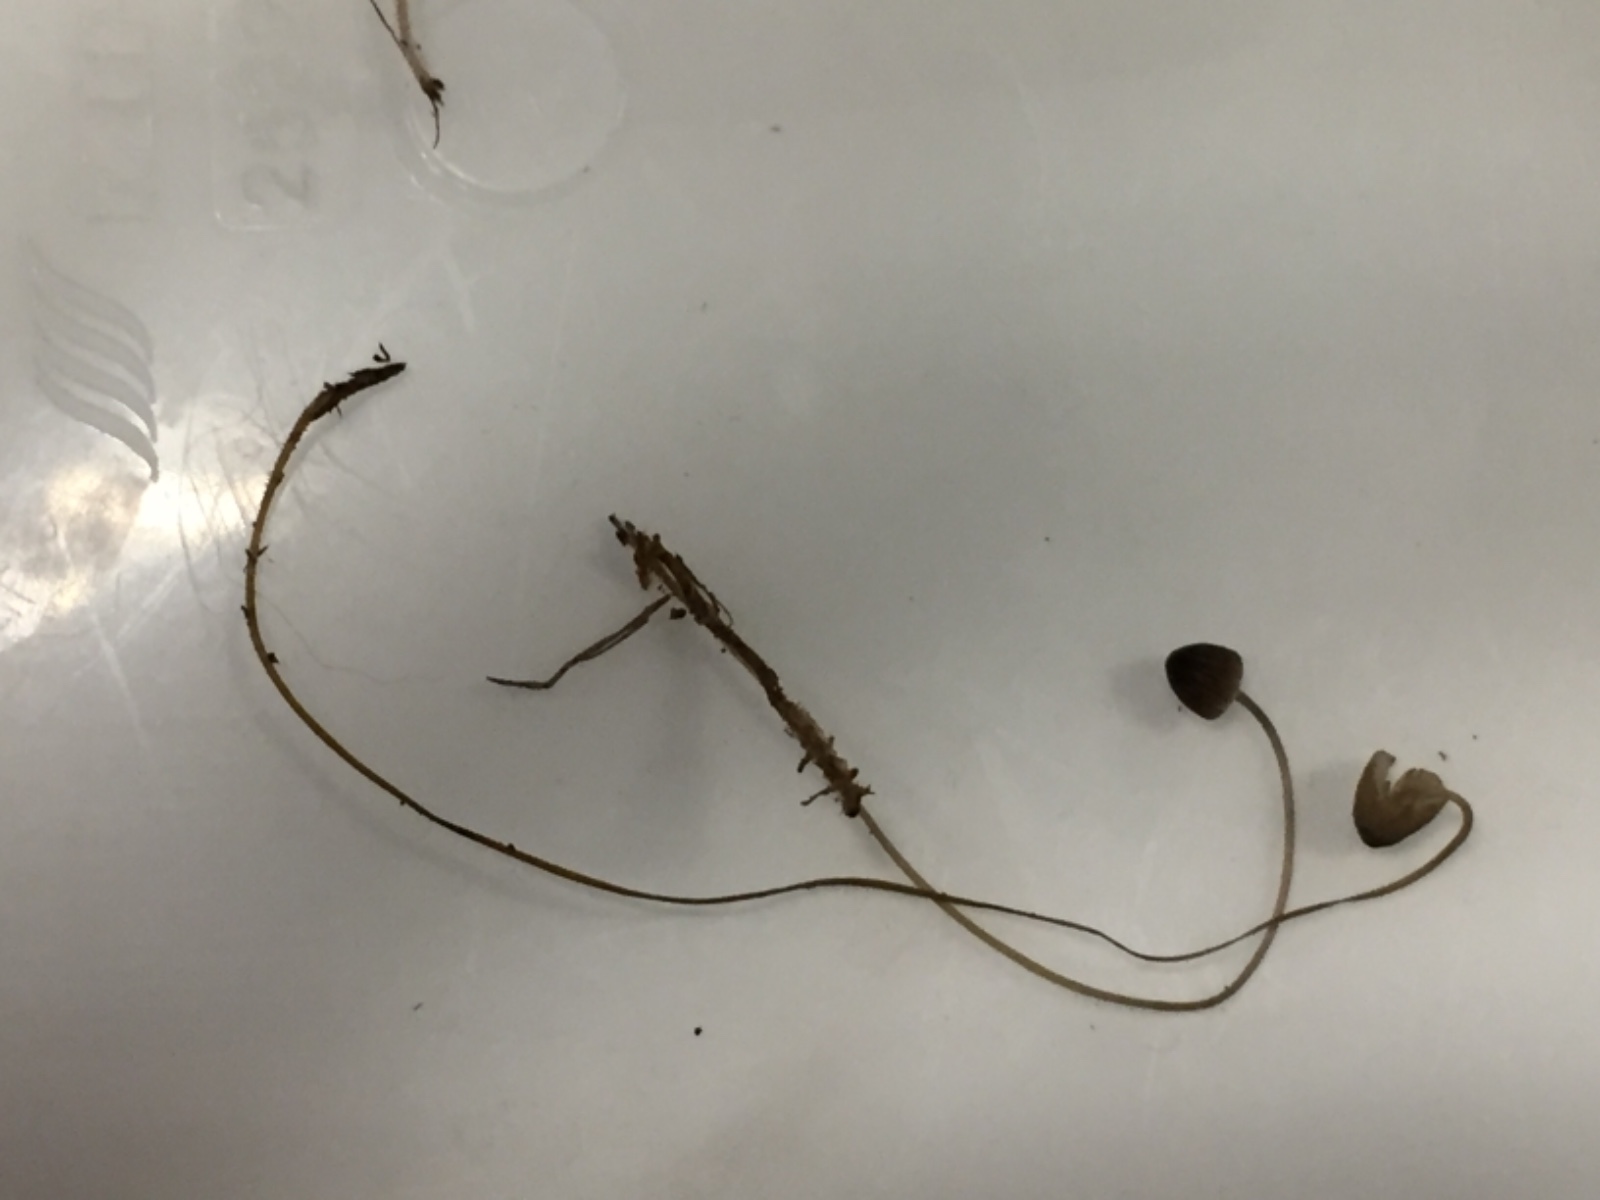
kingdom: Fungi
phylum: Basidiomycota
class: Agaricomycetes
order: Agaricales
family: Tricholomataceae
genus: Mycenella
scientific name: Mycenella lasiosperma
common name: stjernesporet dughat
